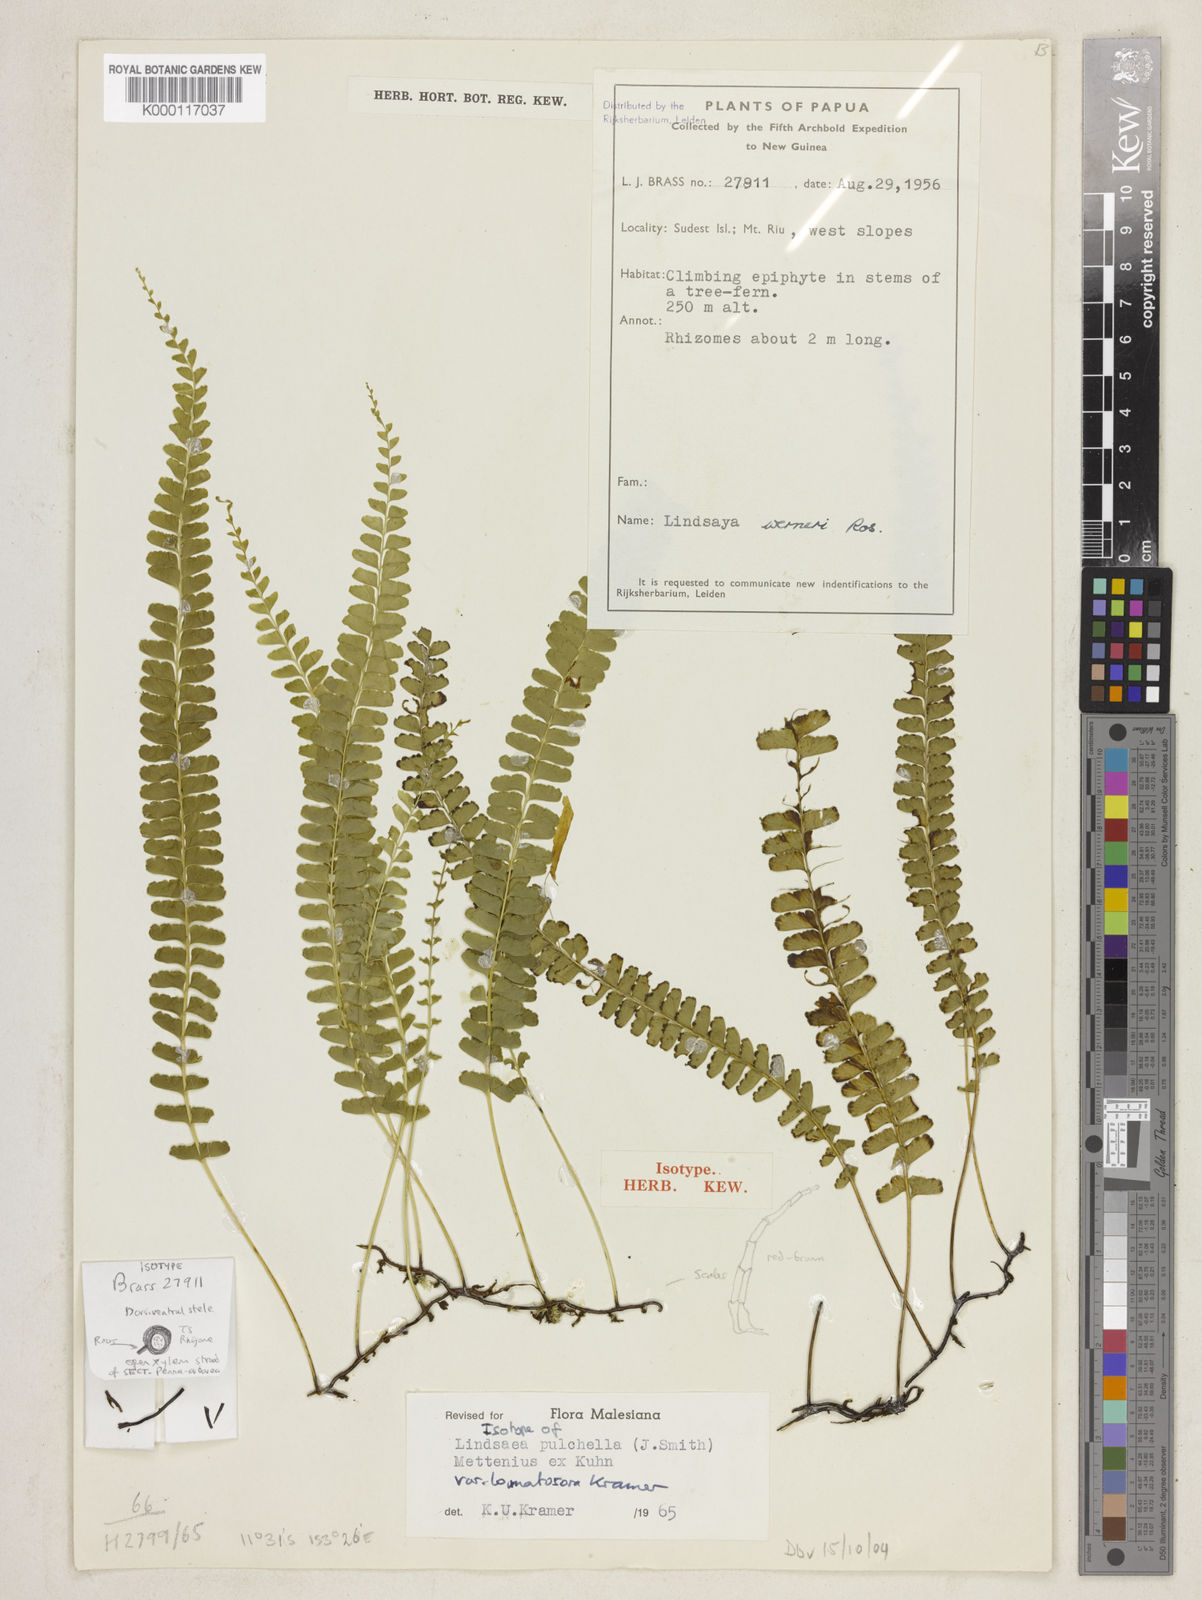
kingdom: Plantae
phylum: Tracheophyta
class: Polypodiopsida
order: Polypodiales
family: Lindsaeaceae
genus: Lindsaea
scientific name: Lindsaea pulchella
